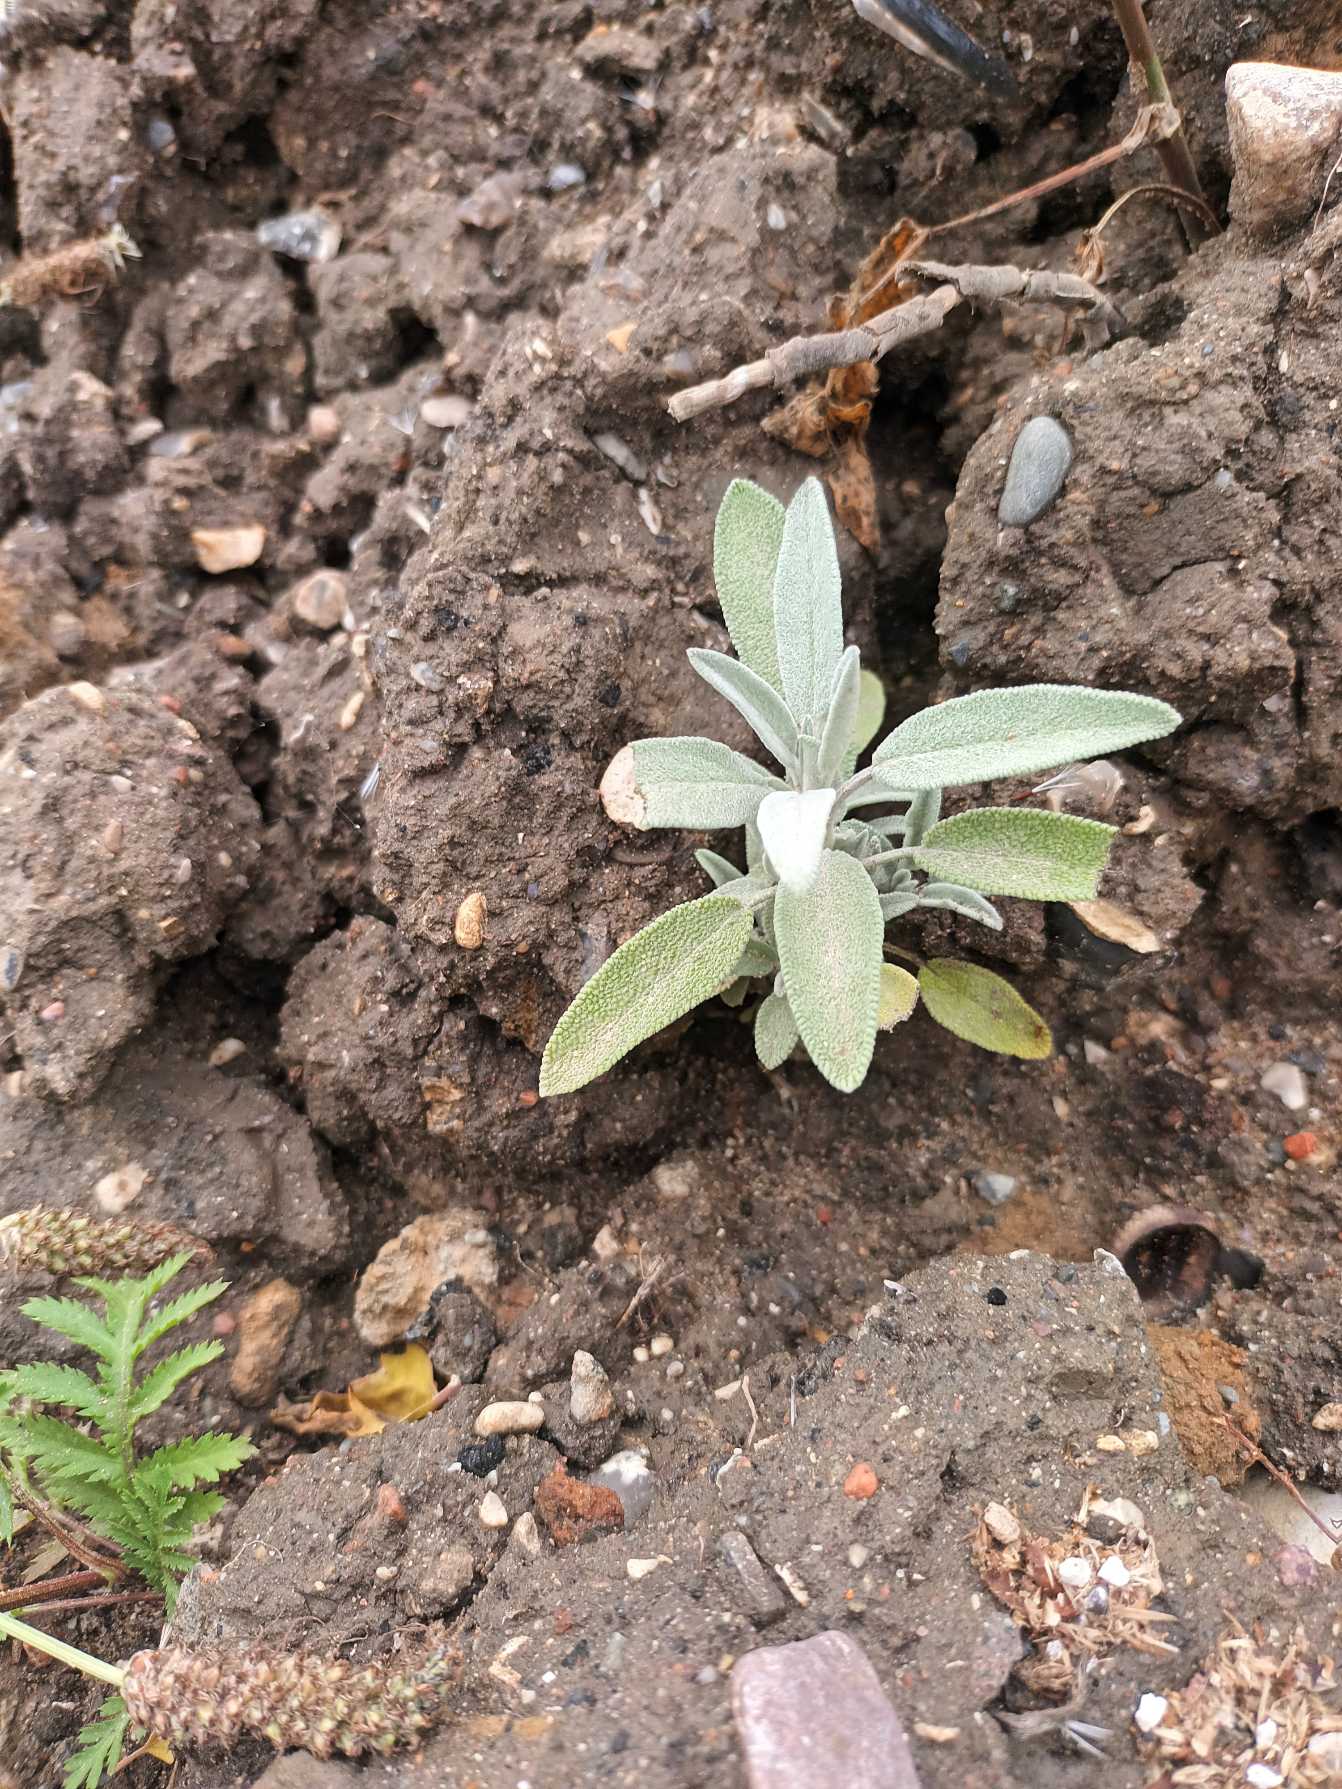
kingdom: Plantae
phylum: Tracheophyta
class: Magnoliopsida
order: Lamiales
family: Lamiaceae
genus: Salvia
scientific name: Salvia officinalis
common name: Læge-salvie
